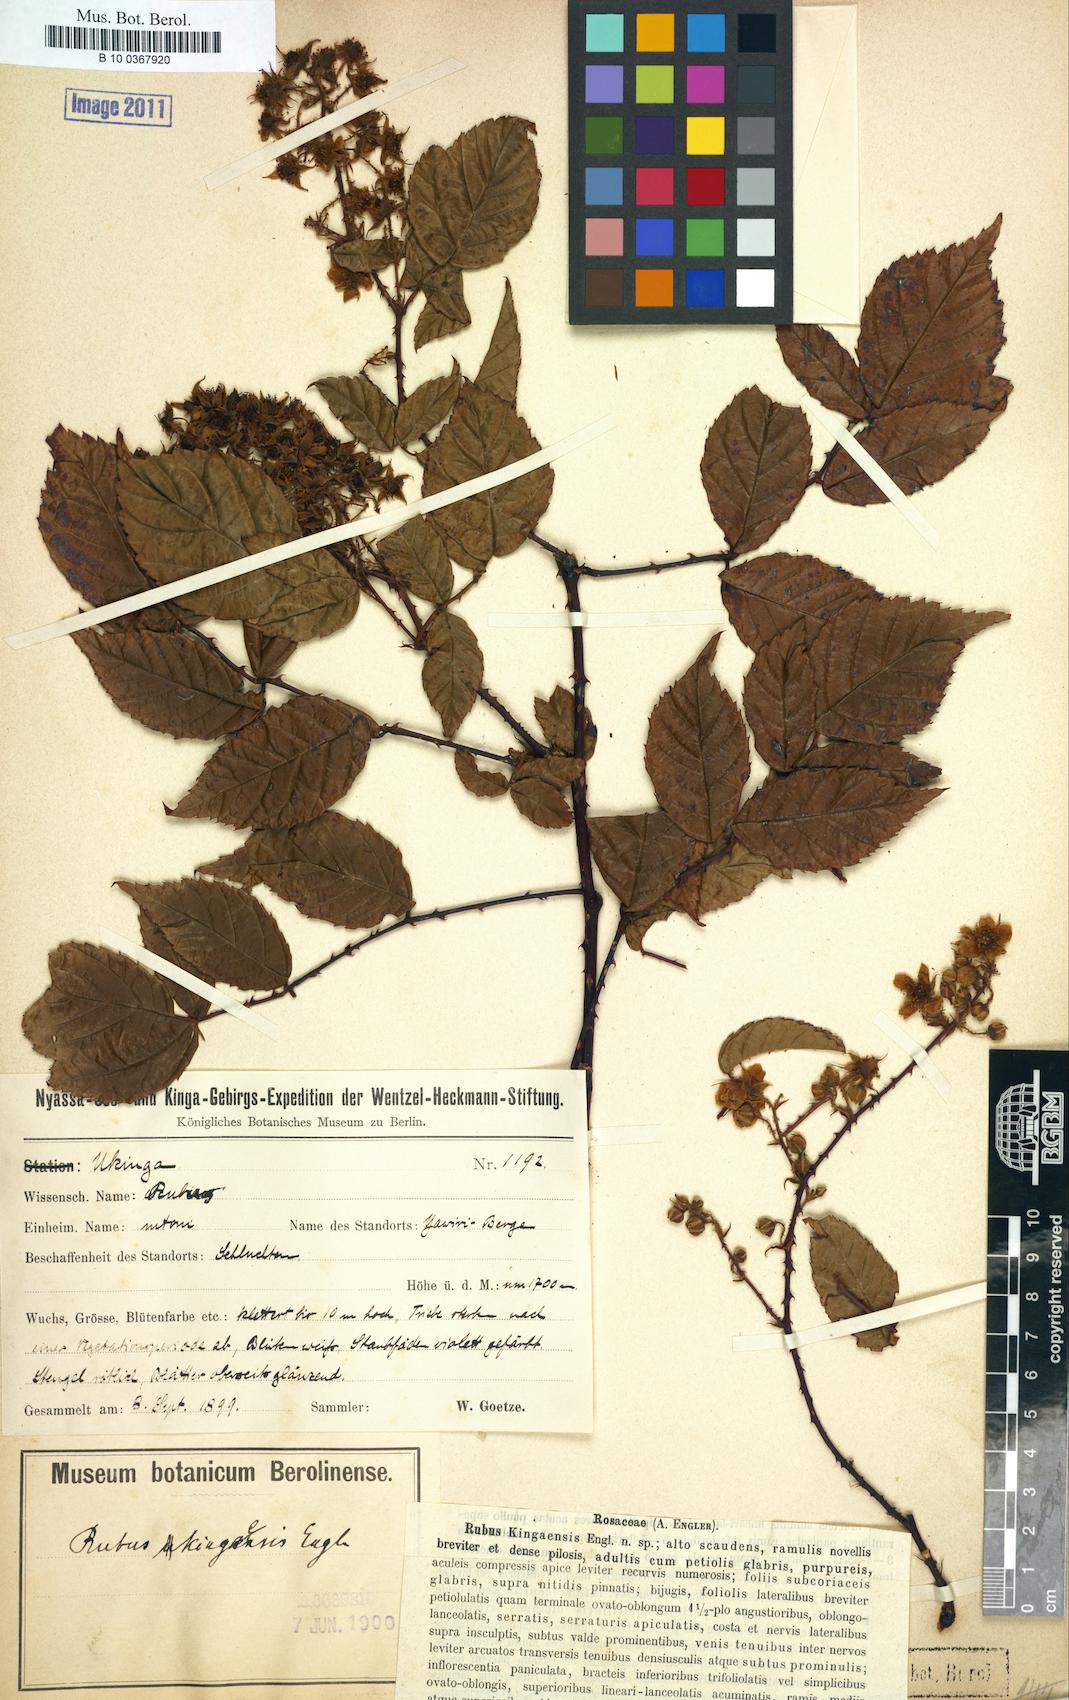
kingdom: Plantae
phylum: Tracheophyta
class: Magnoliopsida
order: Rosales
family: Rosaceae
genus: Rubus
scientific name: Rubus pinnatus
